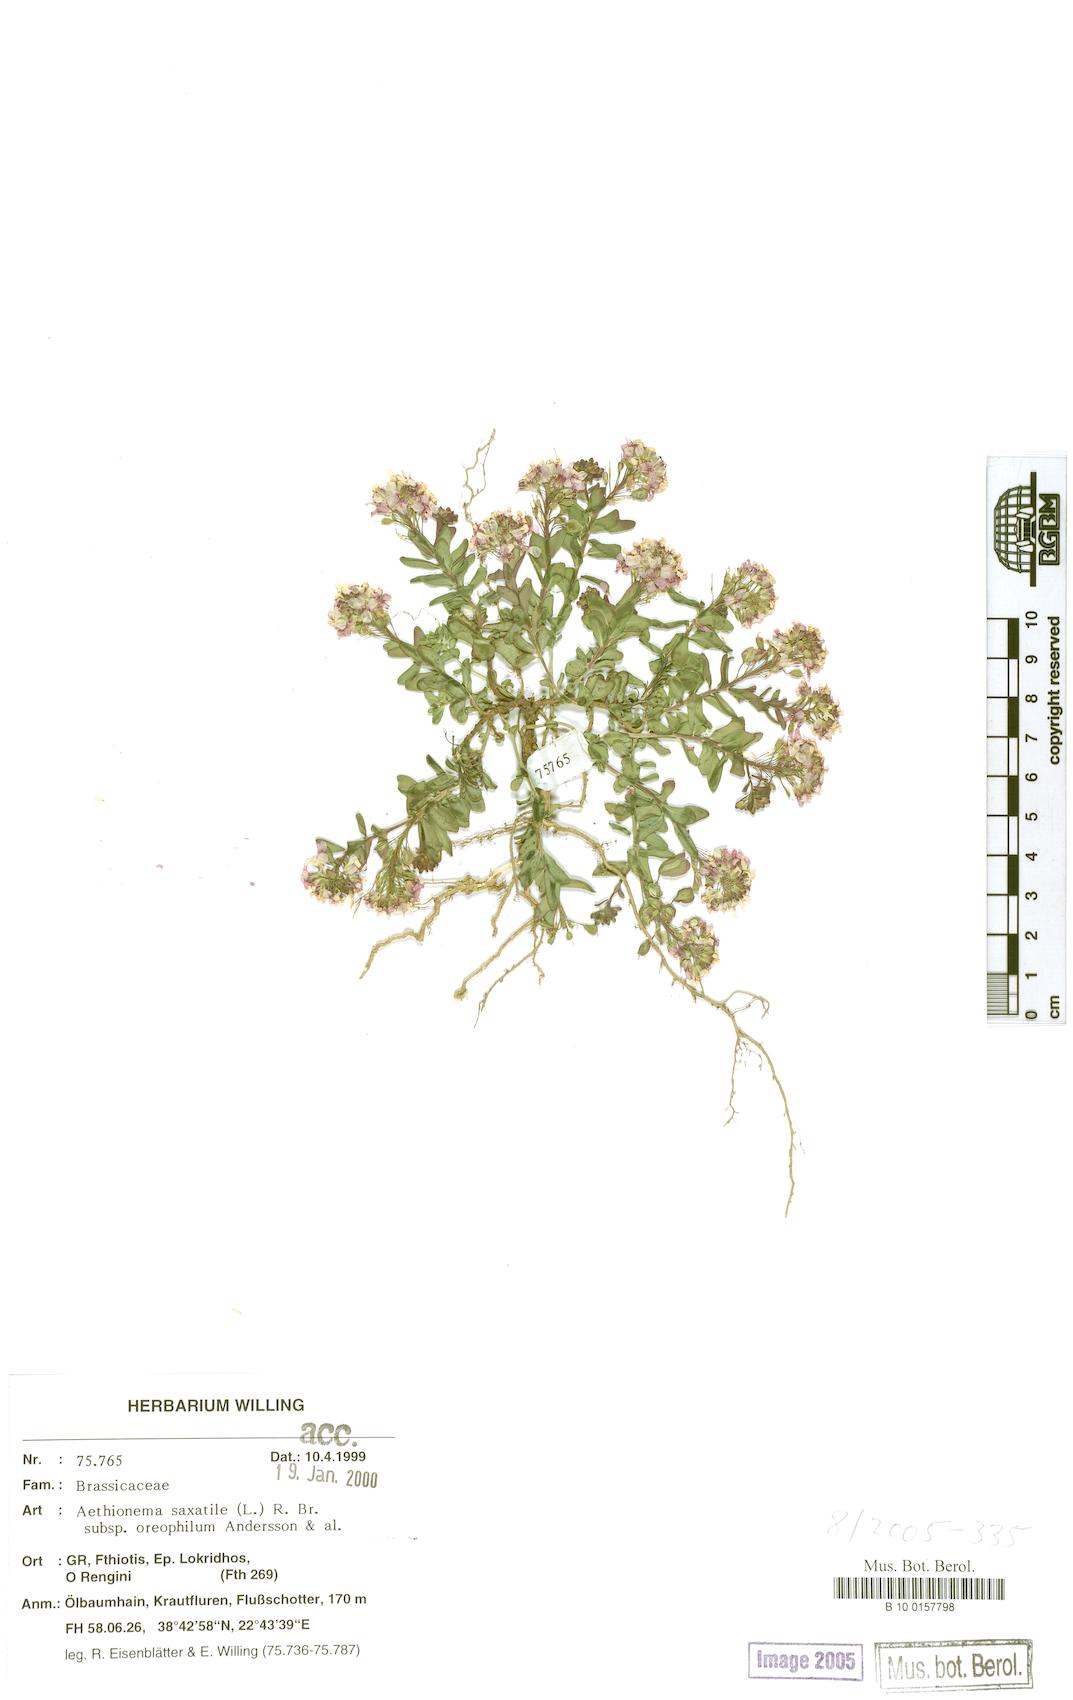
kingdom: Plantae
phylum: Tracheophyta
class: Magnoliopsida
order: Brassicales
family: Brassicaceae
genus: Aethionema
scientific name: Aethionema saxatile
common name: Burnt candytuft
